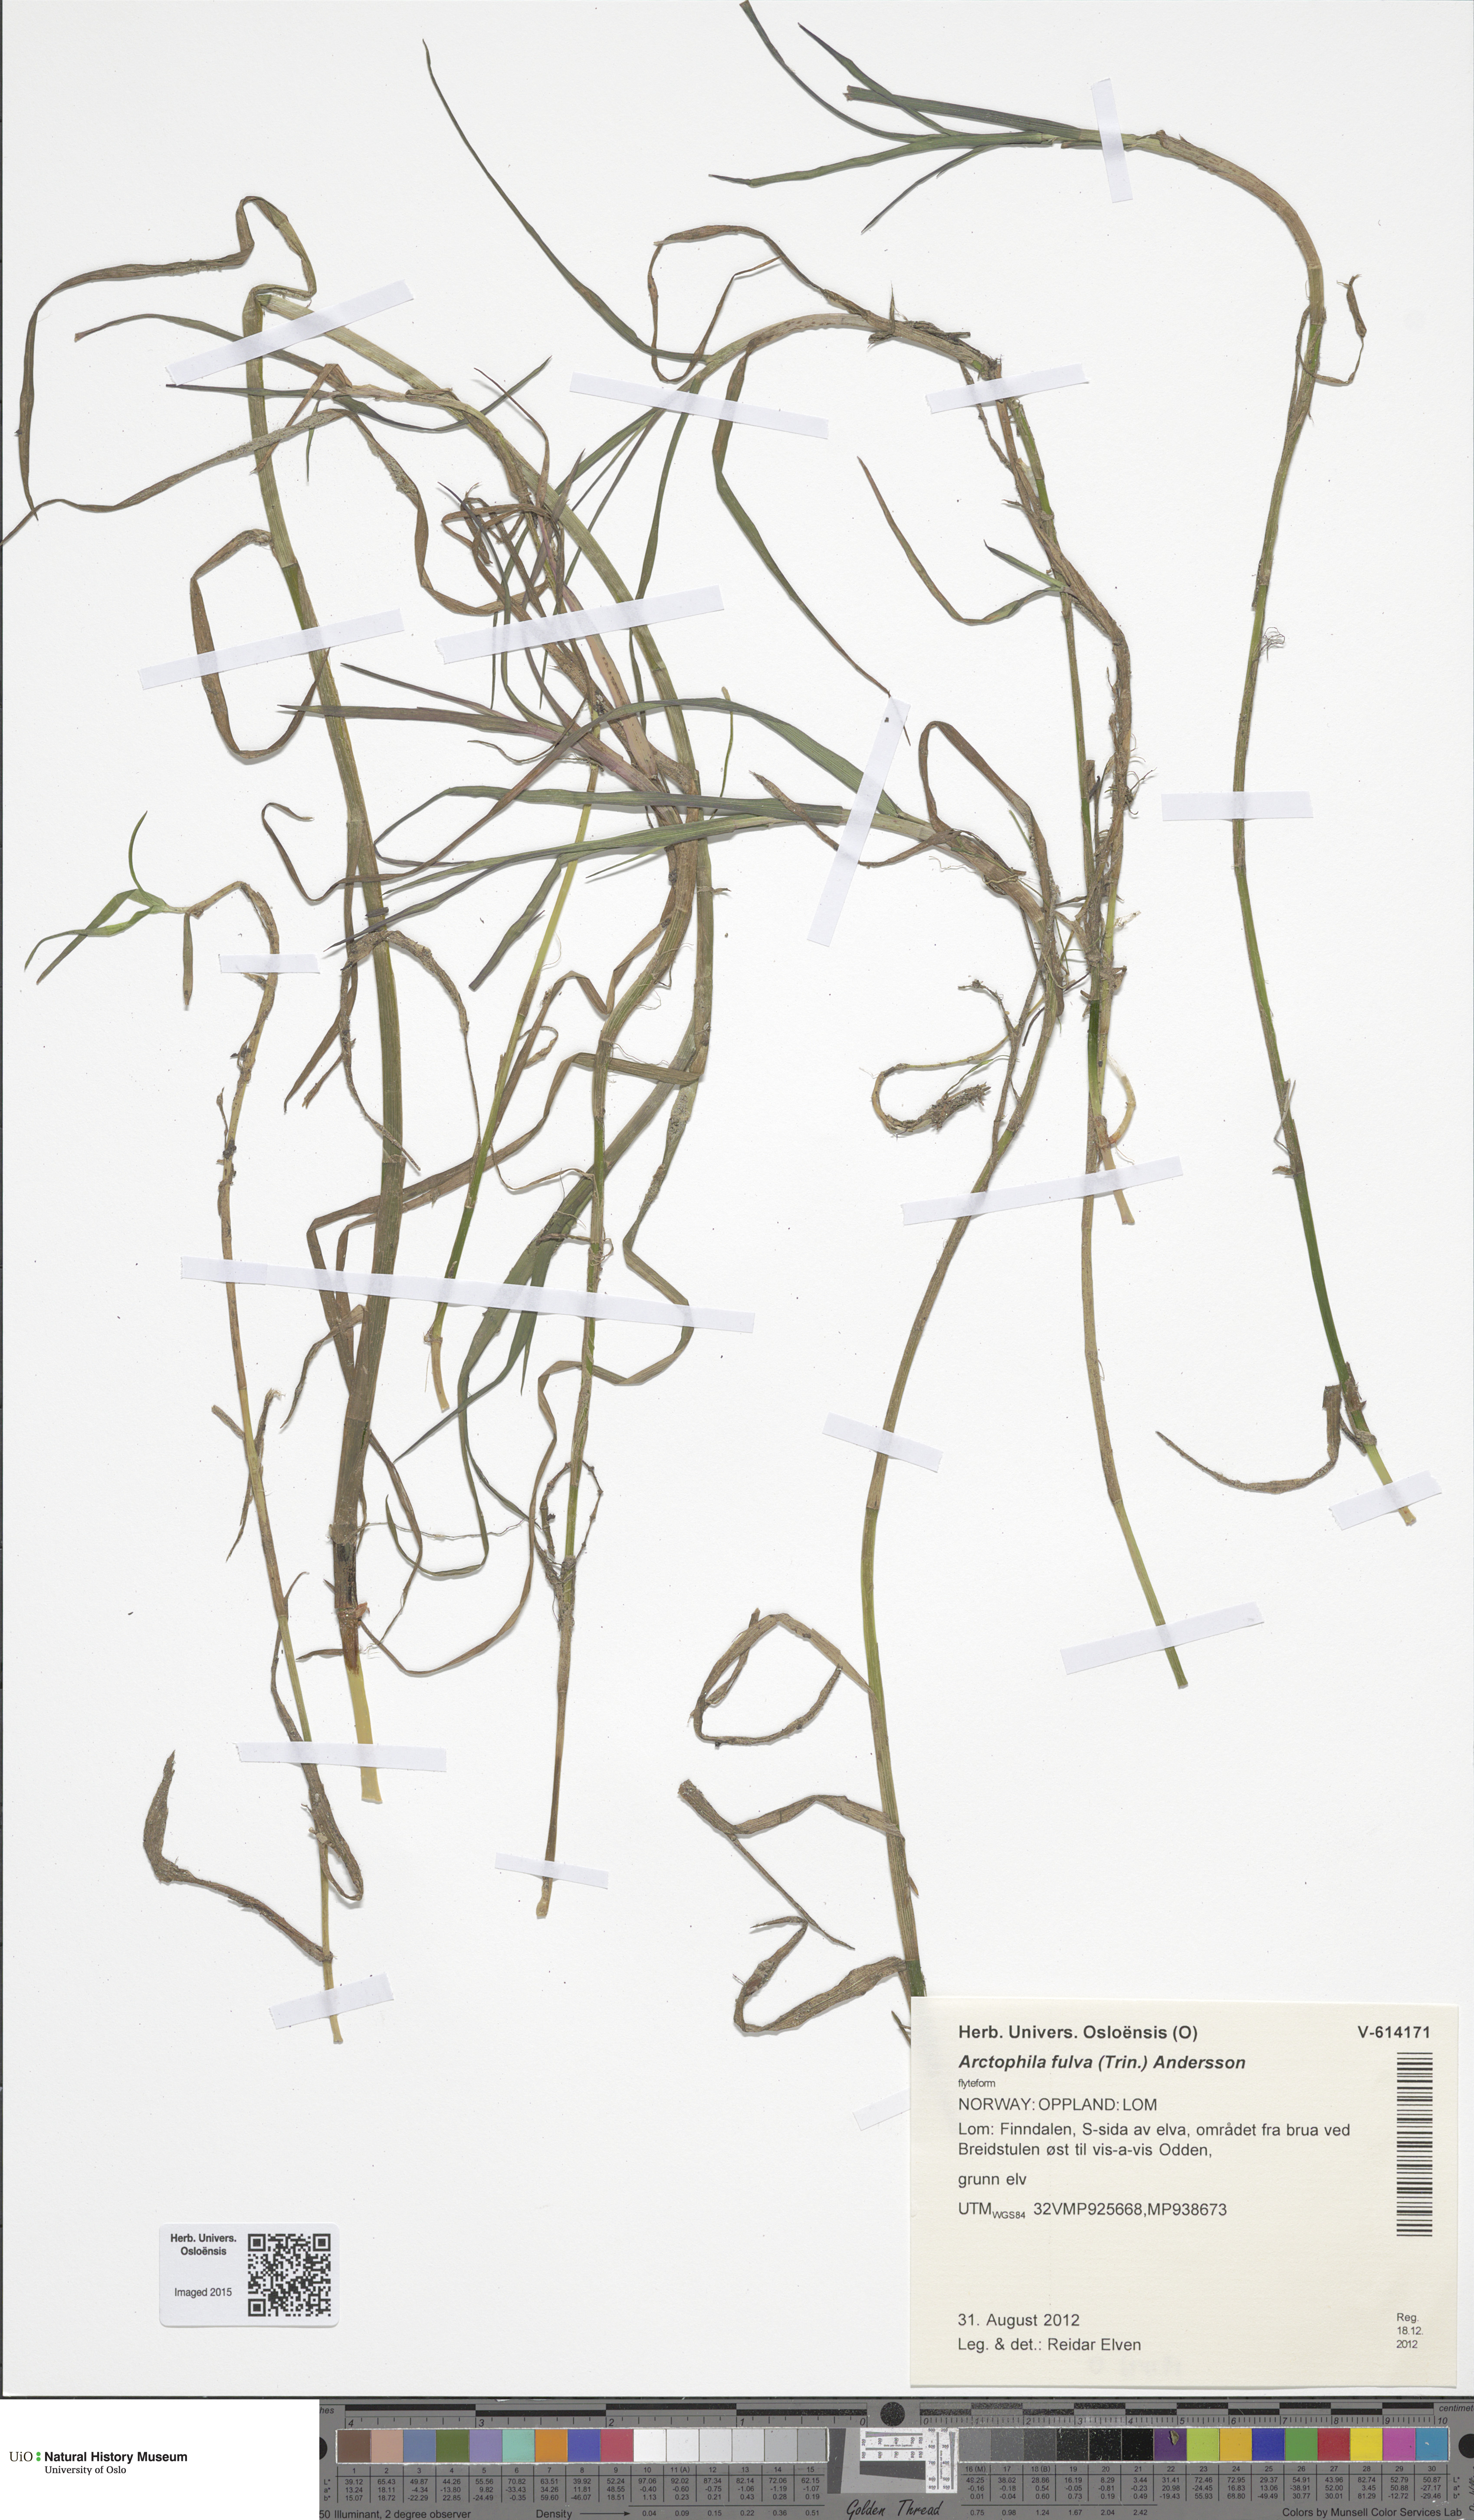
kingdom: Plantae
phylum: Tracheophyta
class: Liliopsida
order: Poales
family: Poaceae
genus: Dupontia
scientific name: Dupontia fulva
